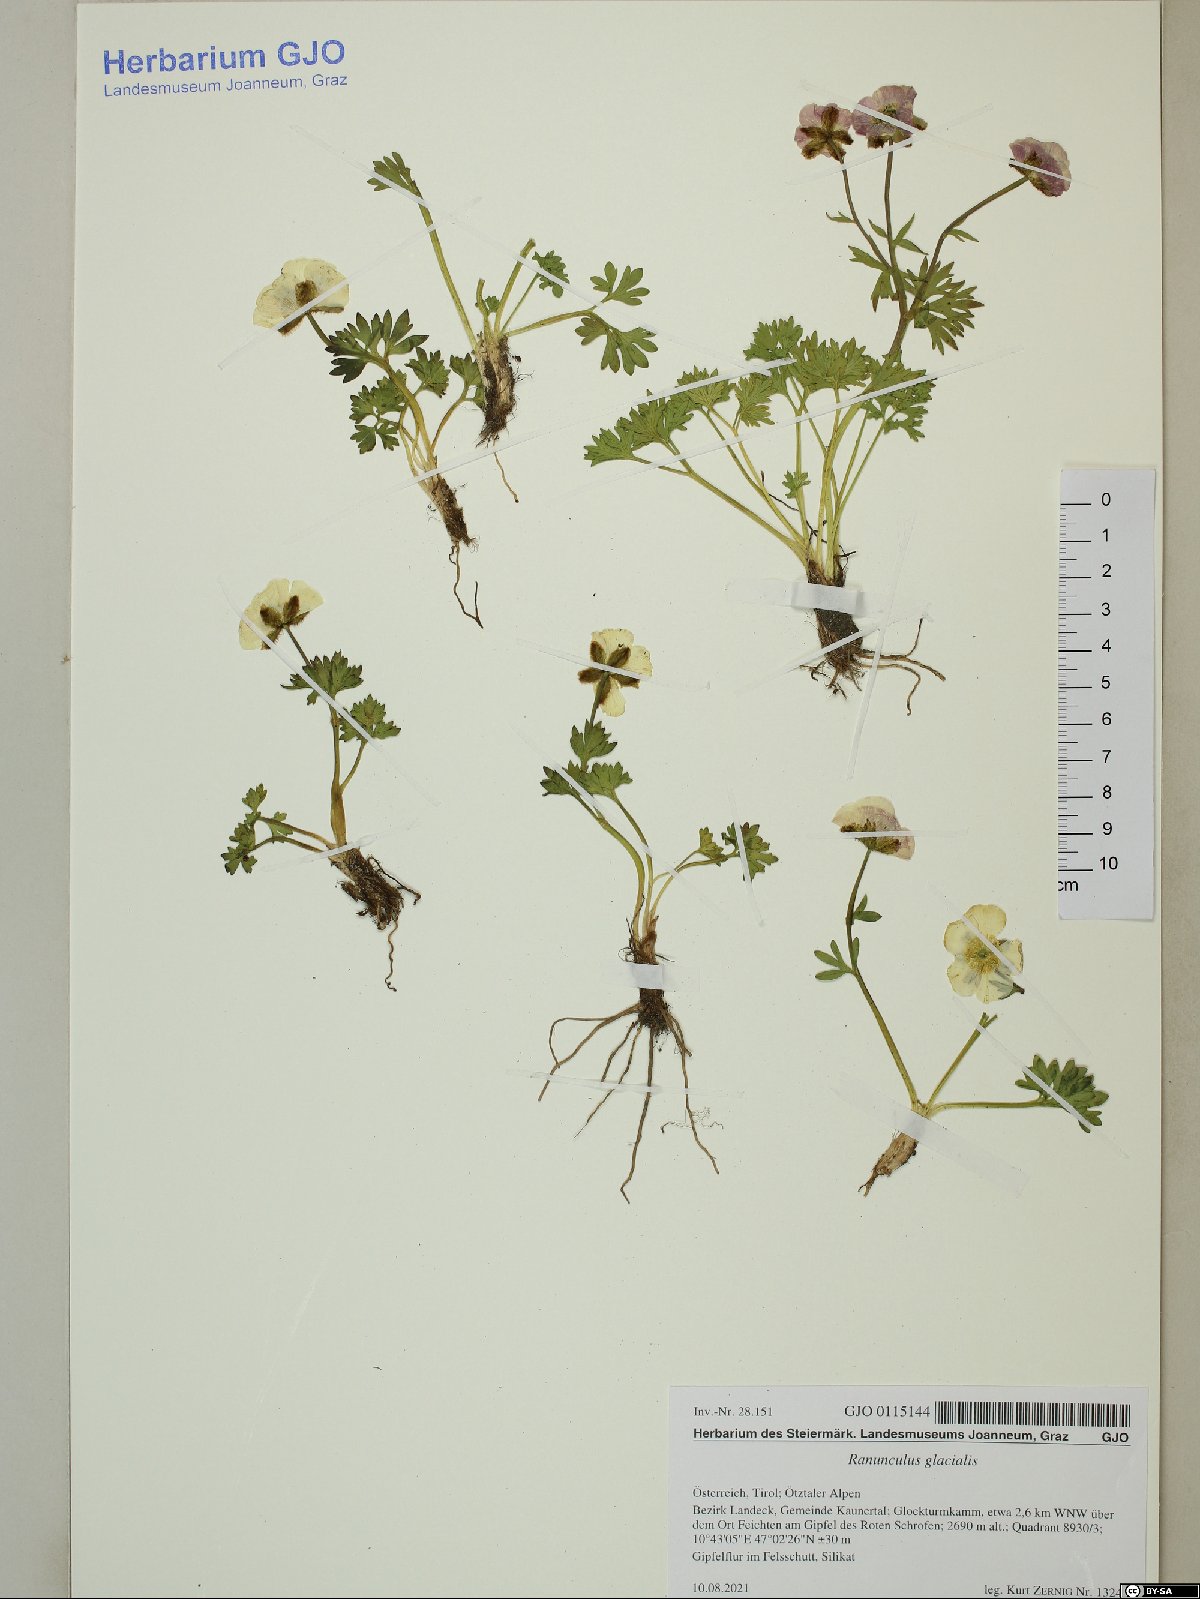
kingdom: Plantae
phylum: Tracheophyta
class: Magnoliopsida
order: Ranunculales
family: Ranunculaceae
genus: Ranunculus
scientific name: Ranunculus glacialis
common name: Glacier buttercup
